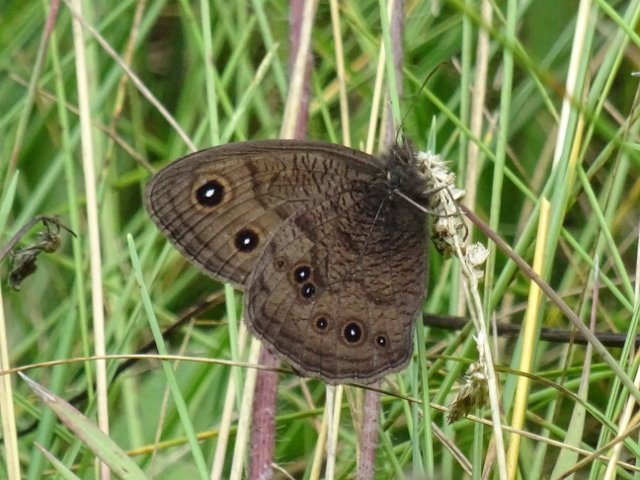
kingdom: Animalia
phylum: Arthropoda
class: Insecta
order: Lepidoptera
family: Nymphalidae
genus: Cercyonis
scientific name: Cercyonis pegala
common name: Common Wood-Nymph
